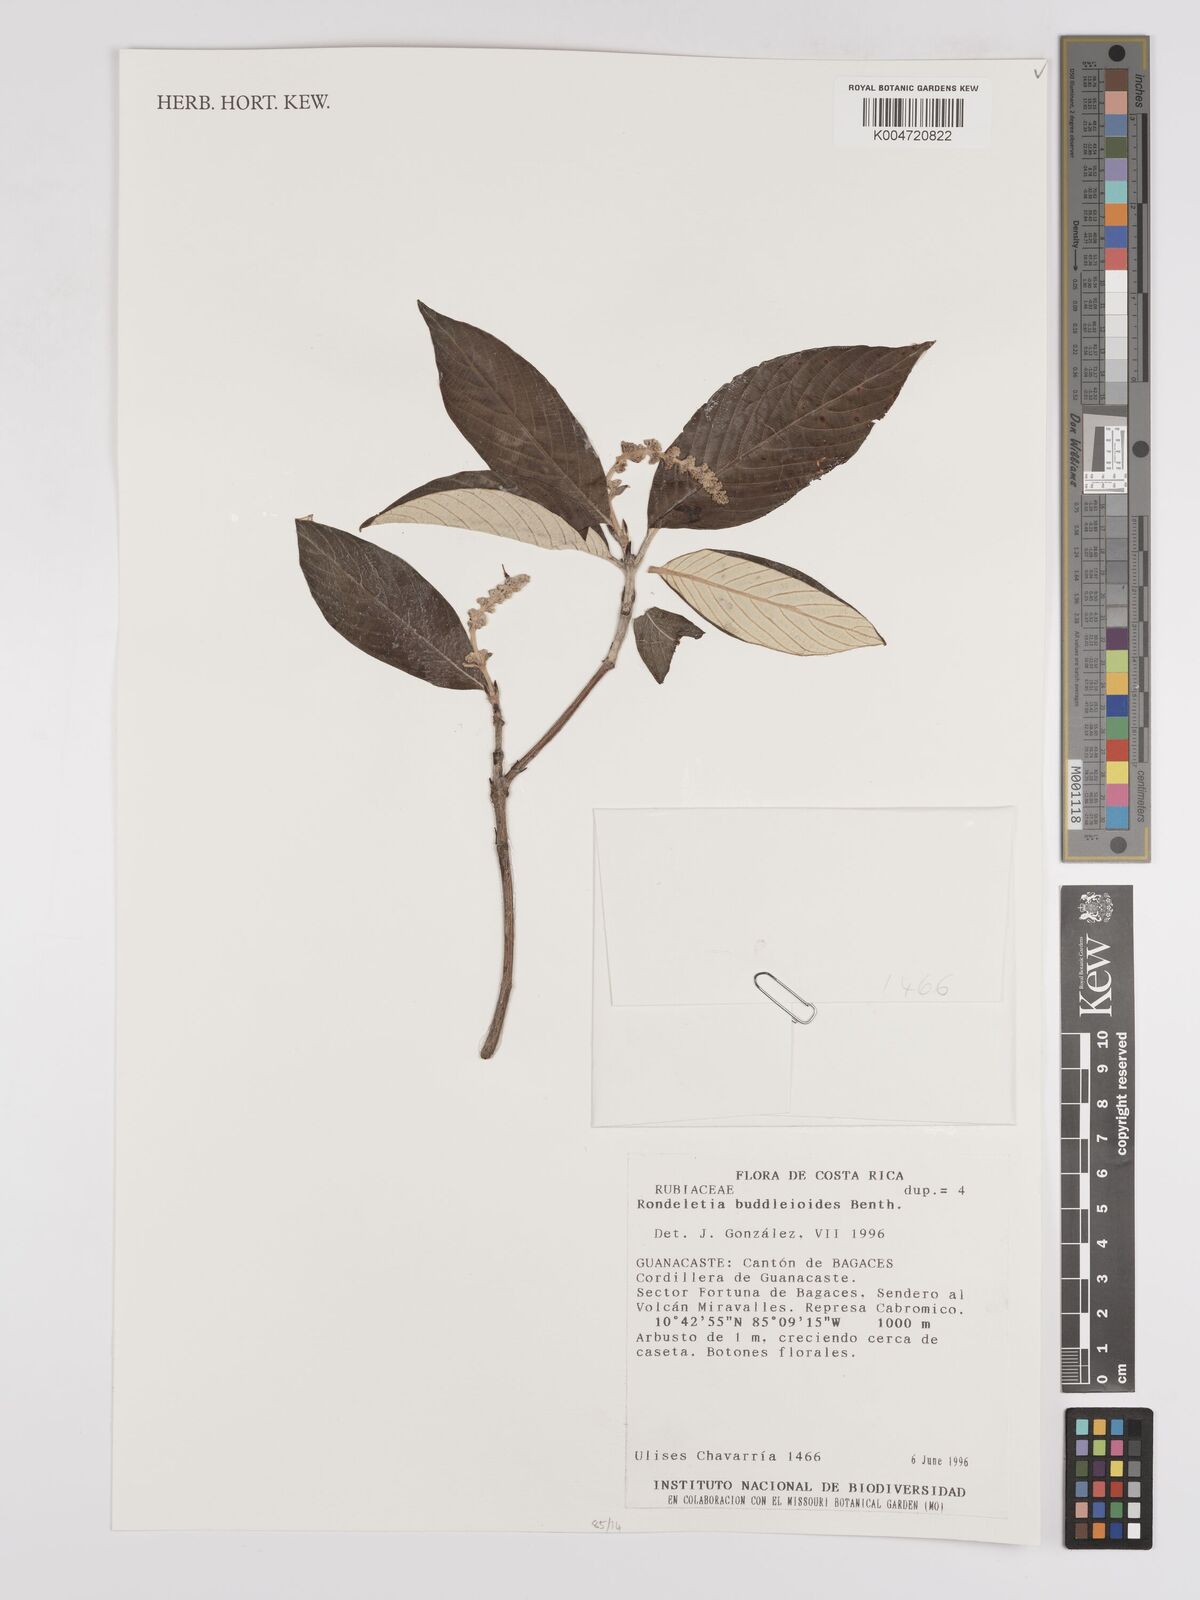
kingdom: Plantae
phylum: Tracheophyta
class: Magnoliopsida
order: Gentianales
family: Rubiaceae
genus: Arachnothryx
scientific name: Arachnothryx buddleioides
